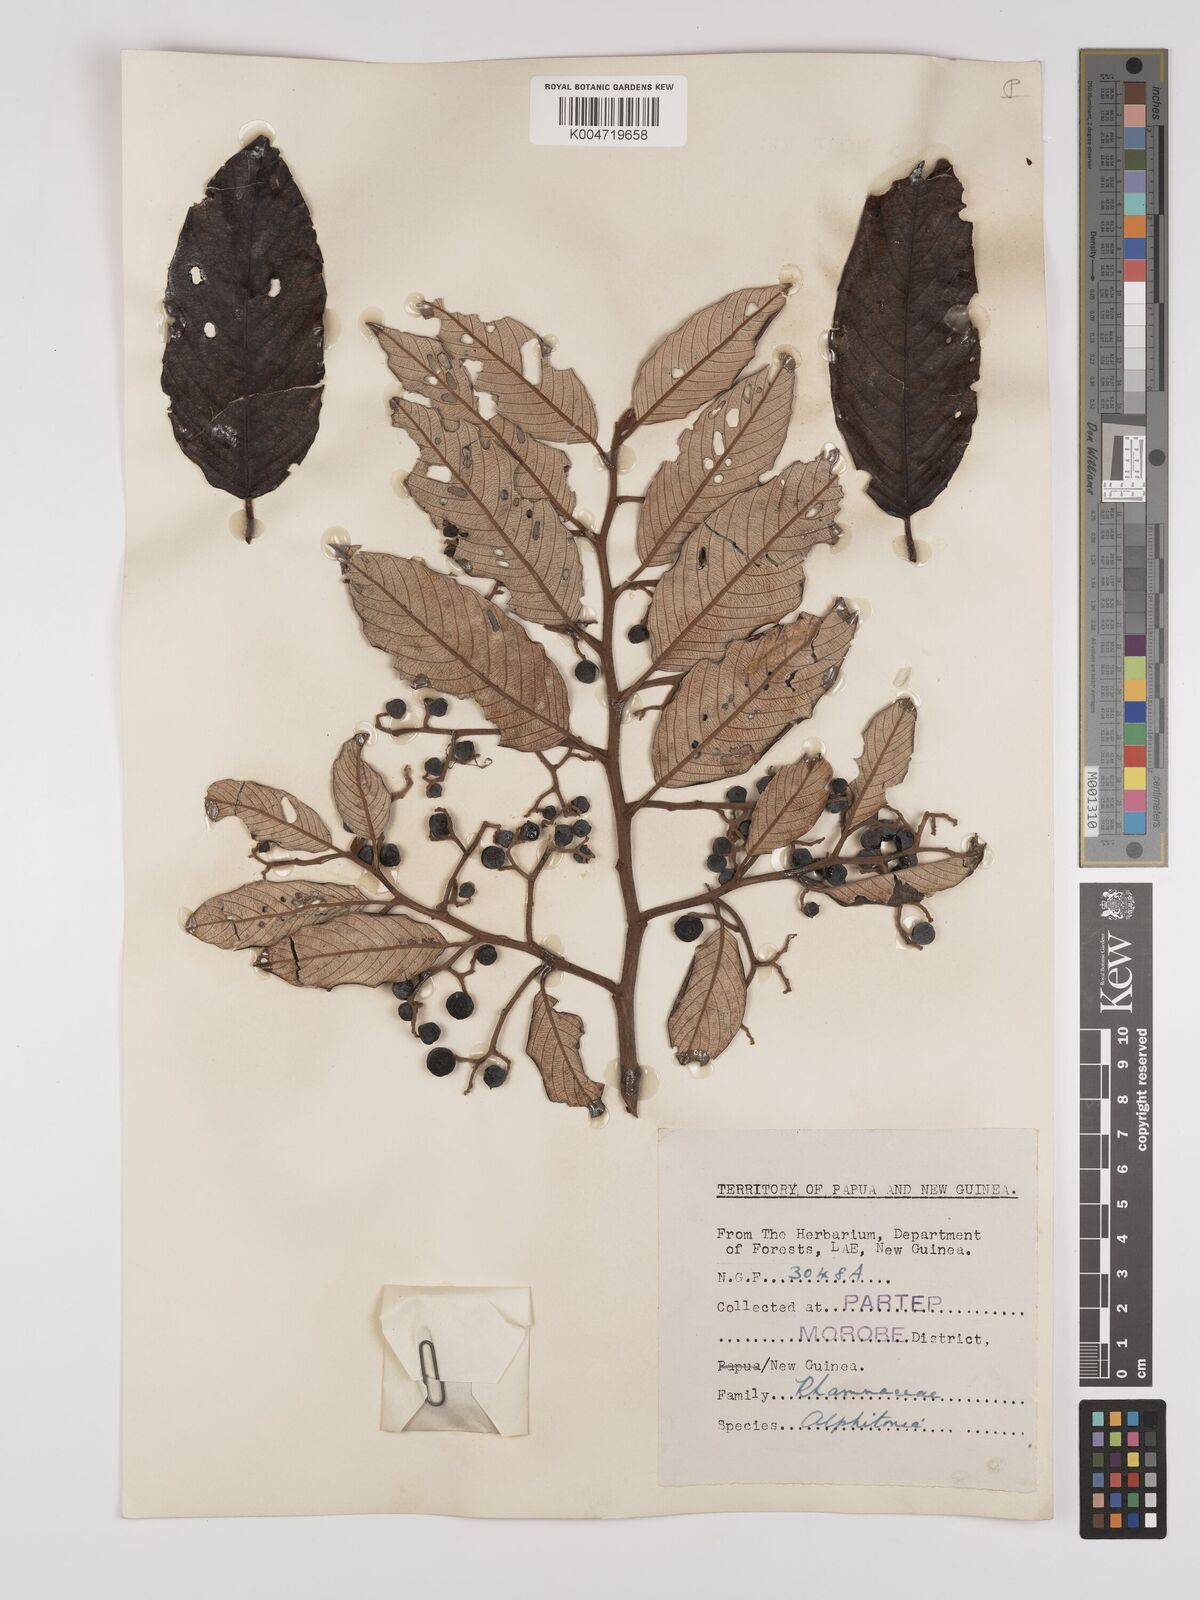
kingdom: Plantae
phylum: Tracheophyta
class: Magnoliopsida
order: Rosales
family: Rhamnaceae
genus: Alphitonia
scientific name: Alphitonia
